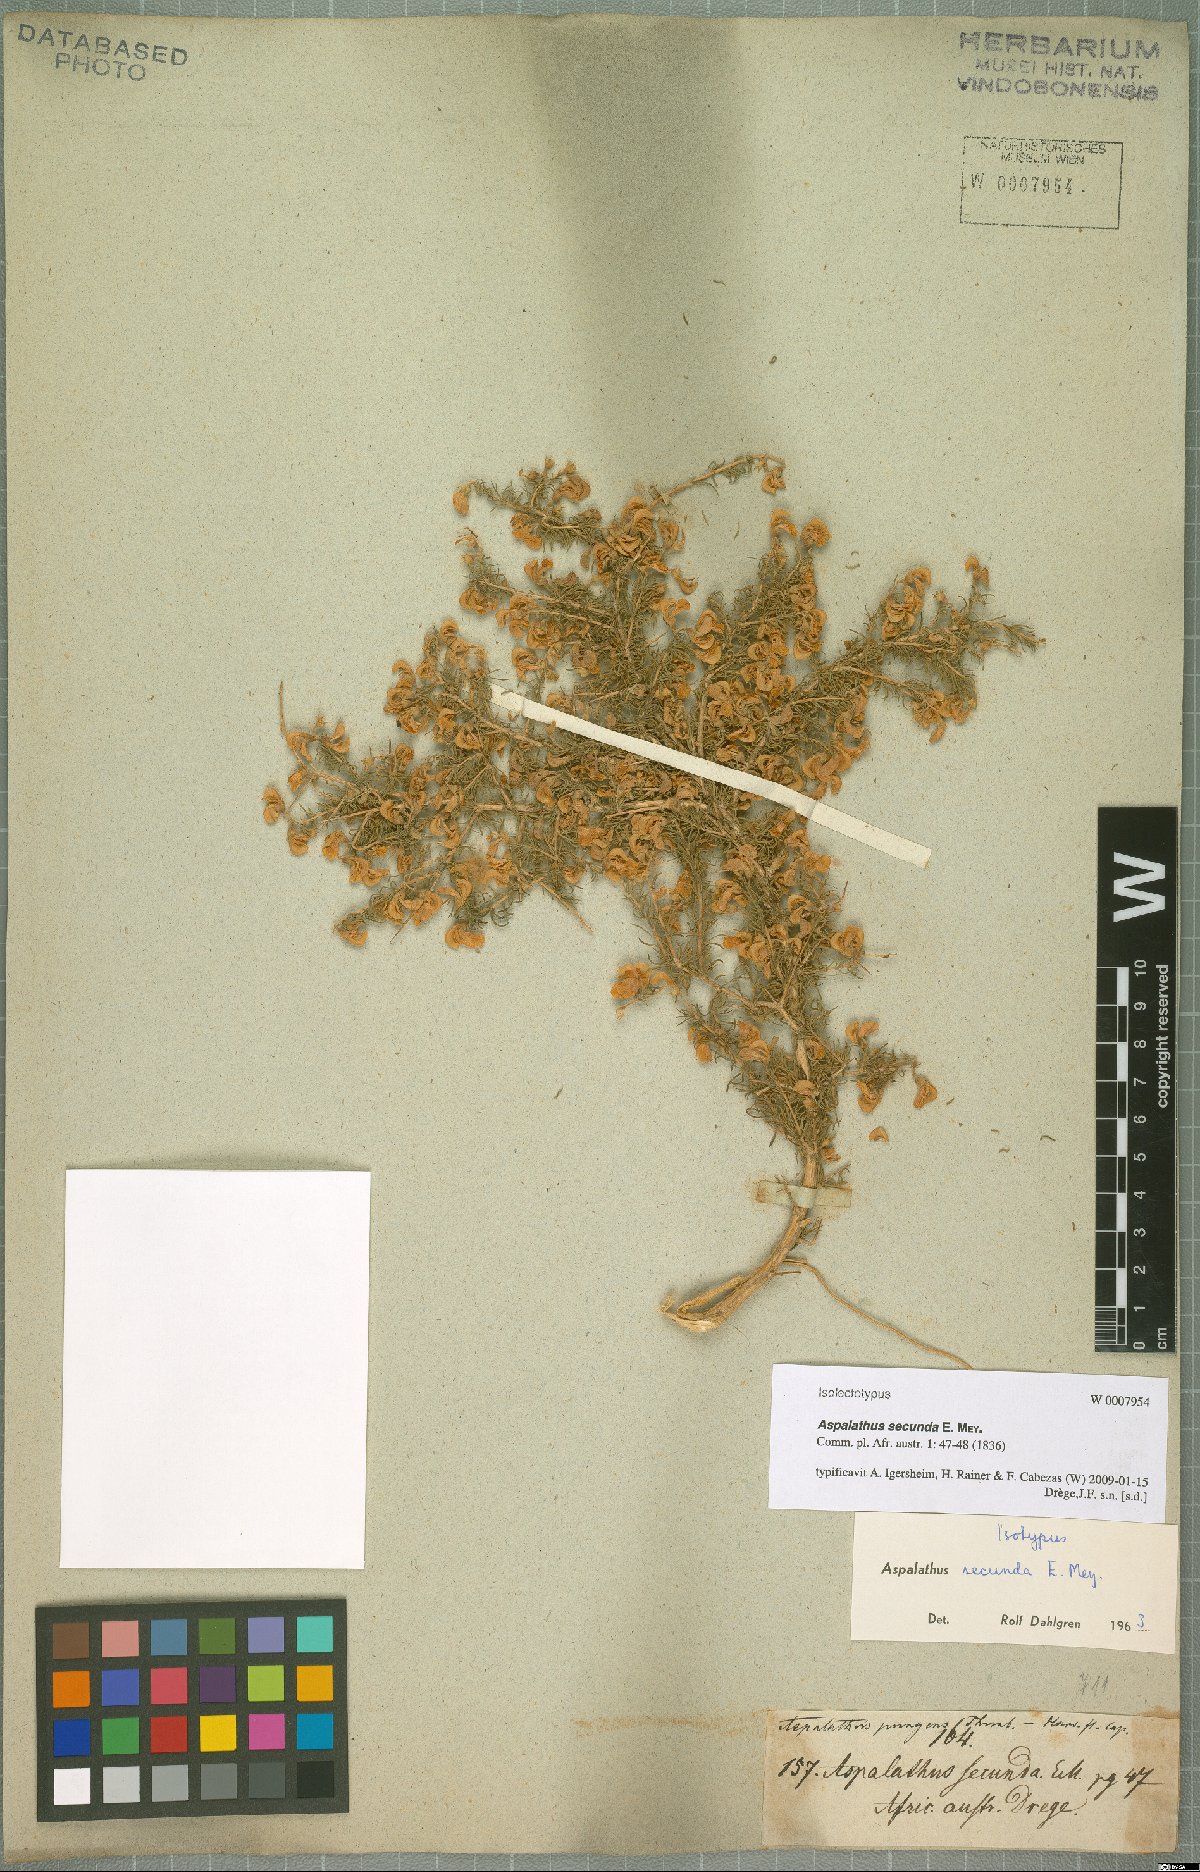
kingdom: Plantae
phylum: Tracheophyta
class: Magnoliopsida
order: Fabales
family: Fabaceae
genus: Aspalathus
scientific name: Aspalathus secunda
